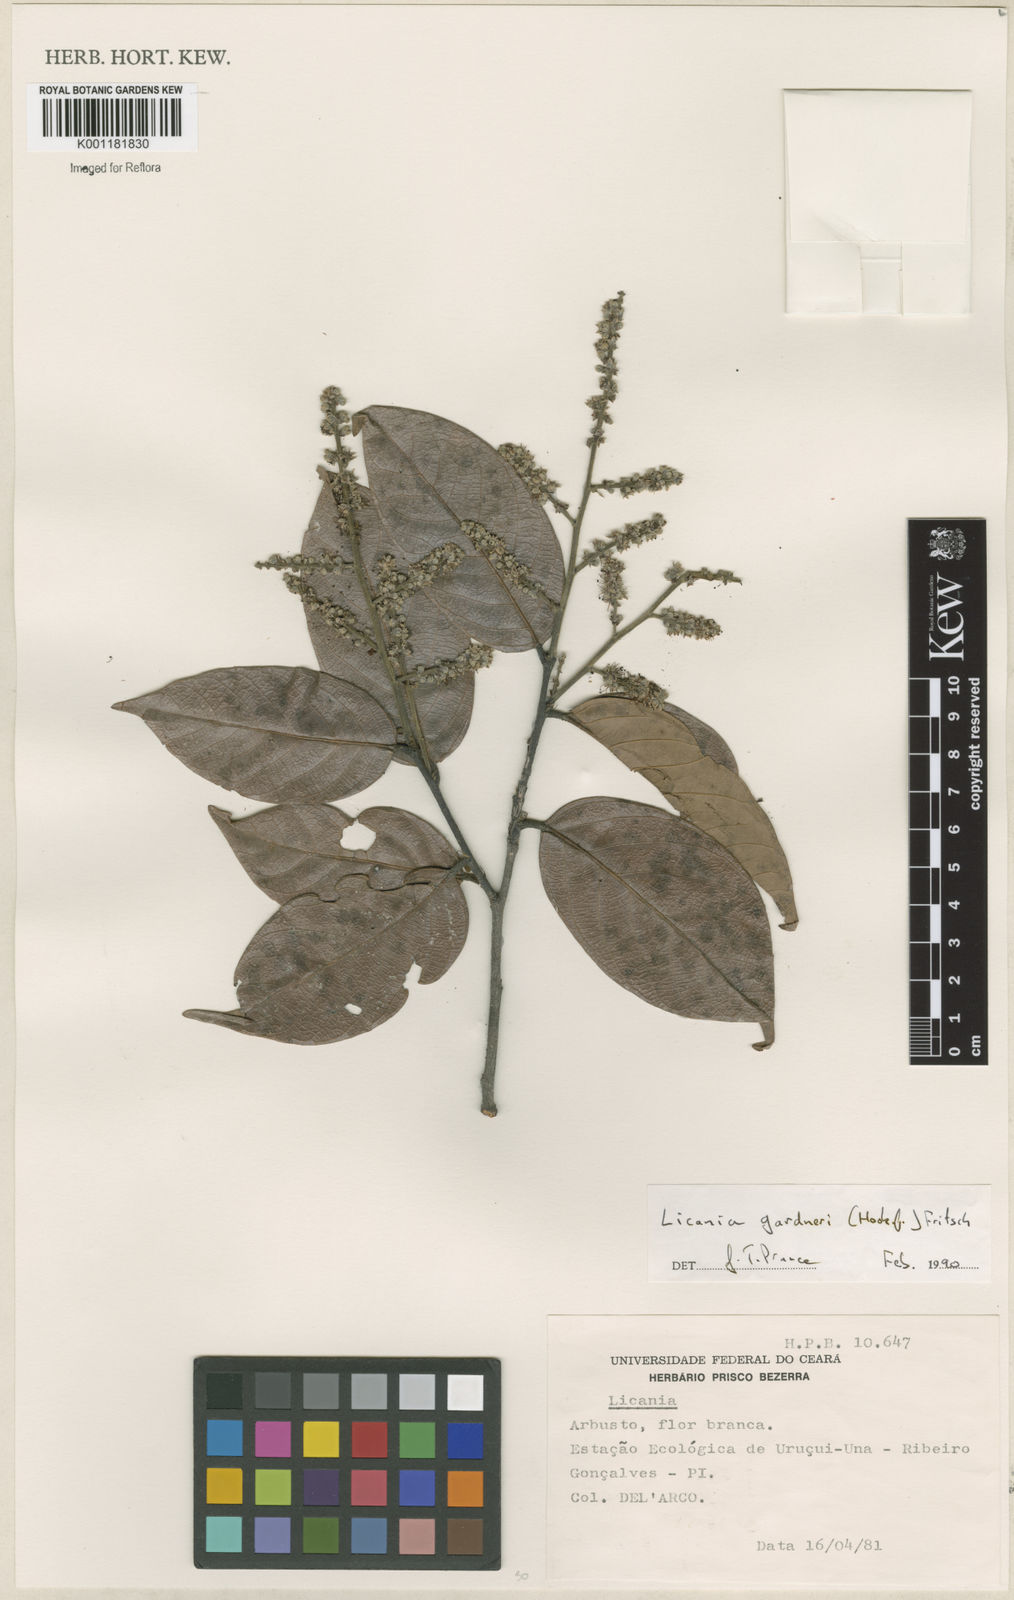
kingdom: Plantae
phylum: Tracheophyta
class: Magnoliopsida
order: Malpighiales
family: Chrysobalanaceae
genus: Leptobalanus
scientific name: Leptobalanus gardneri
